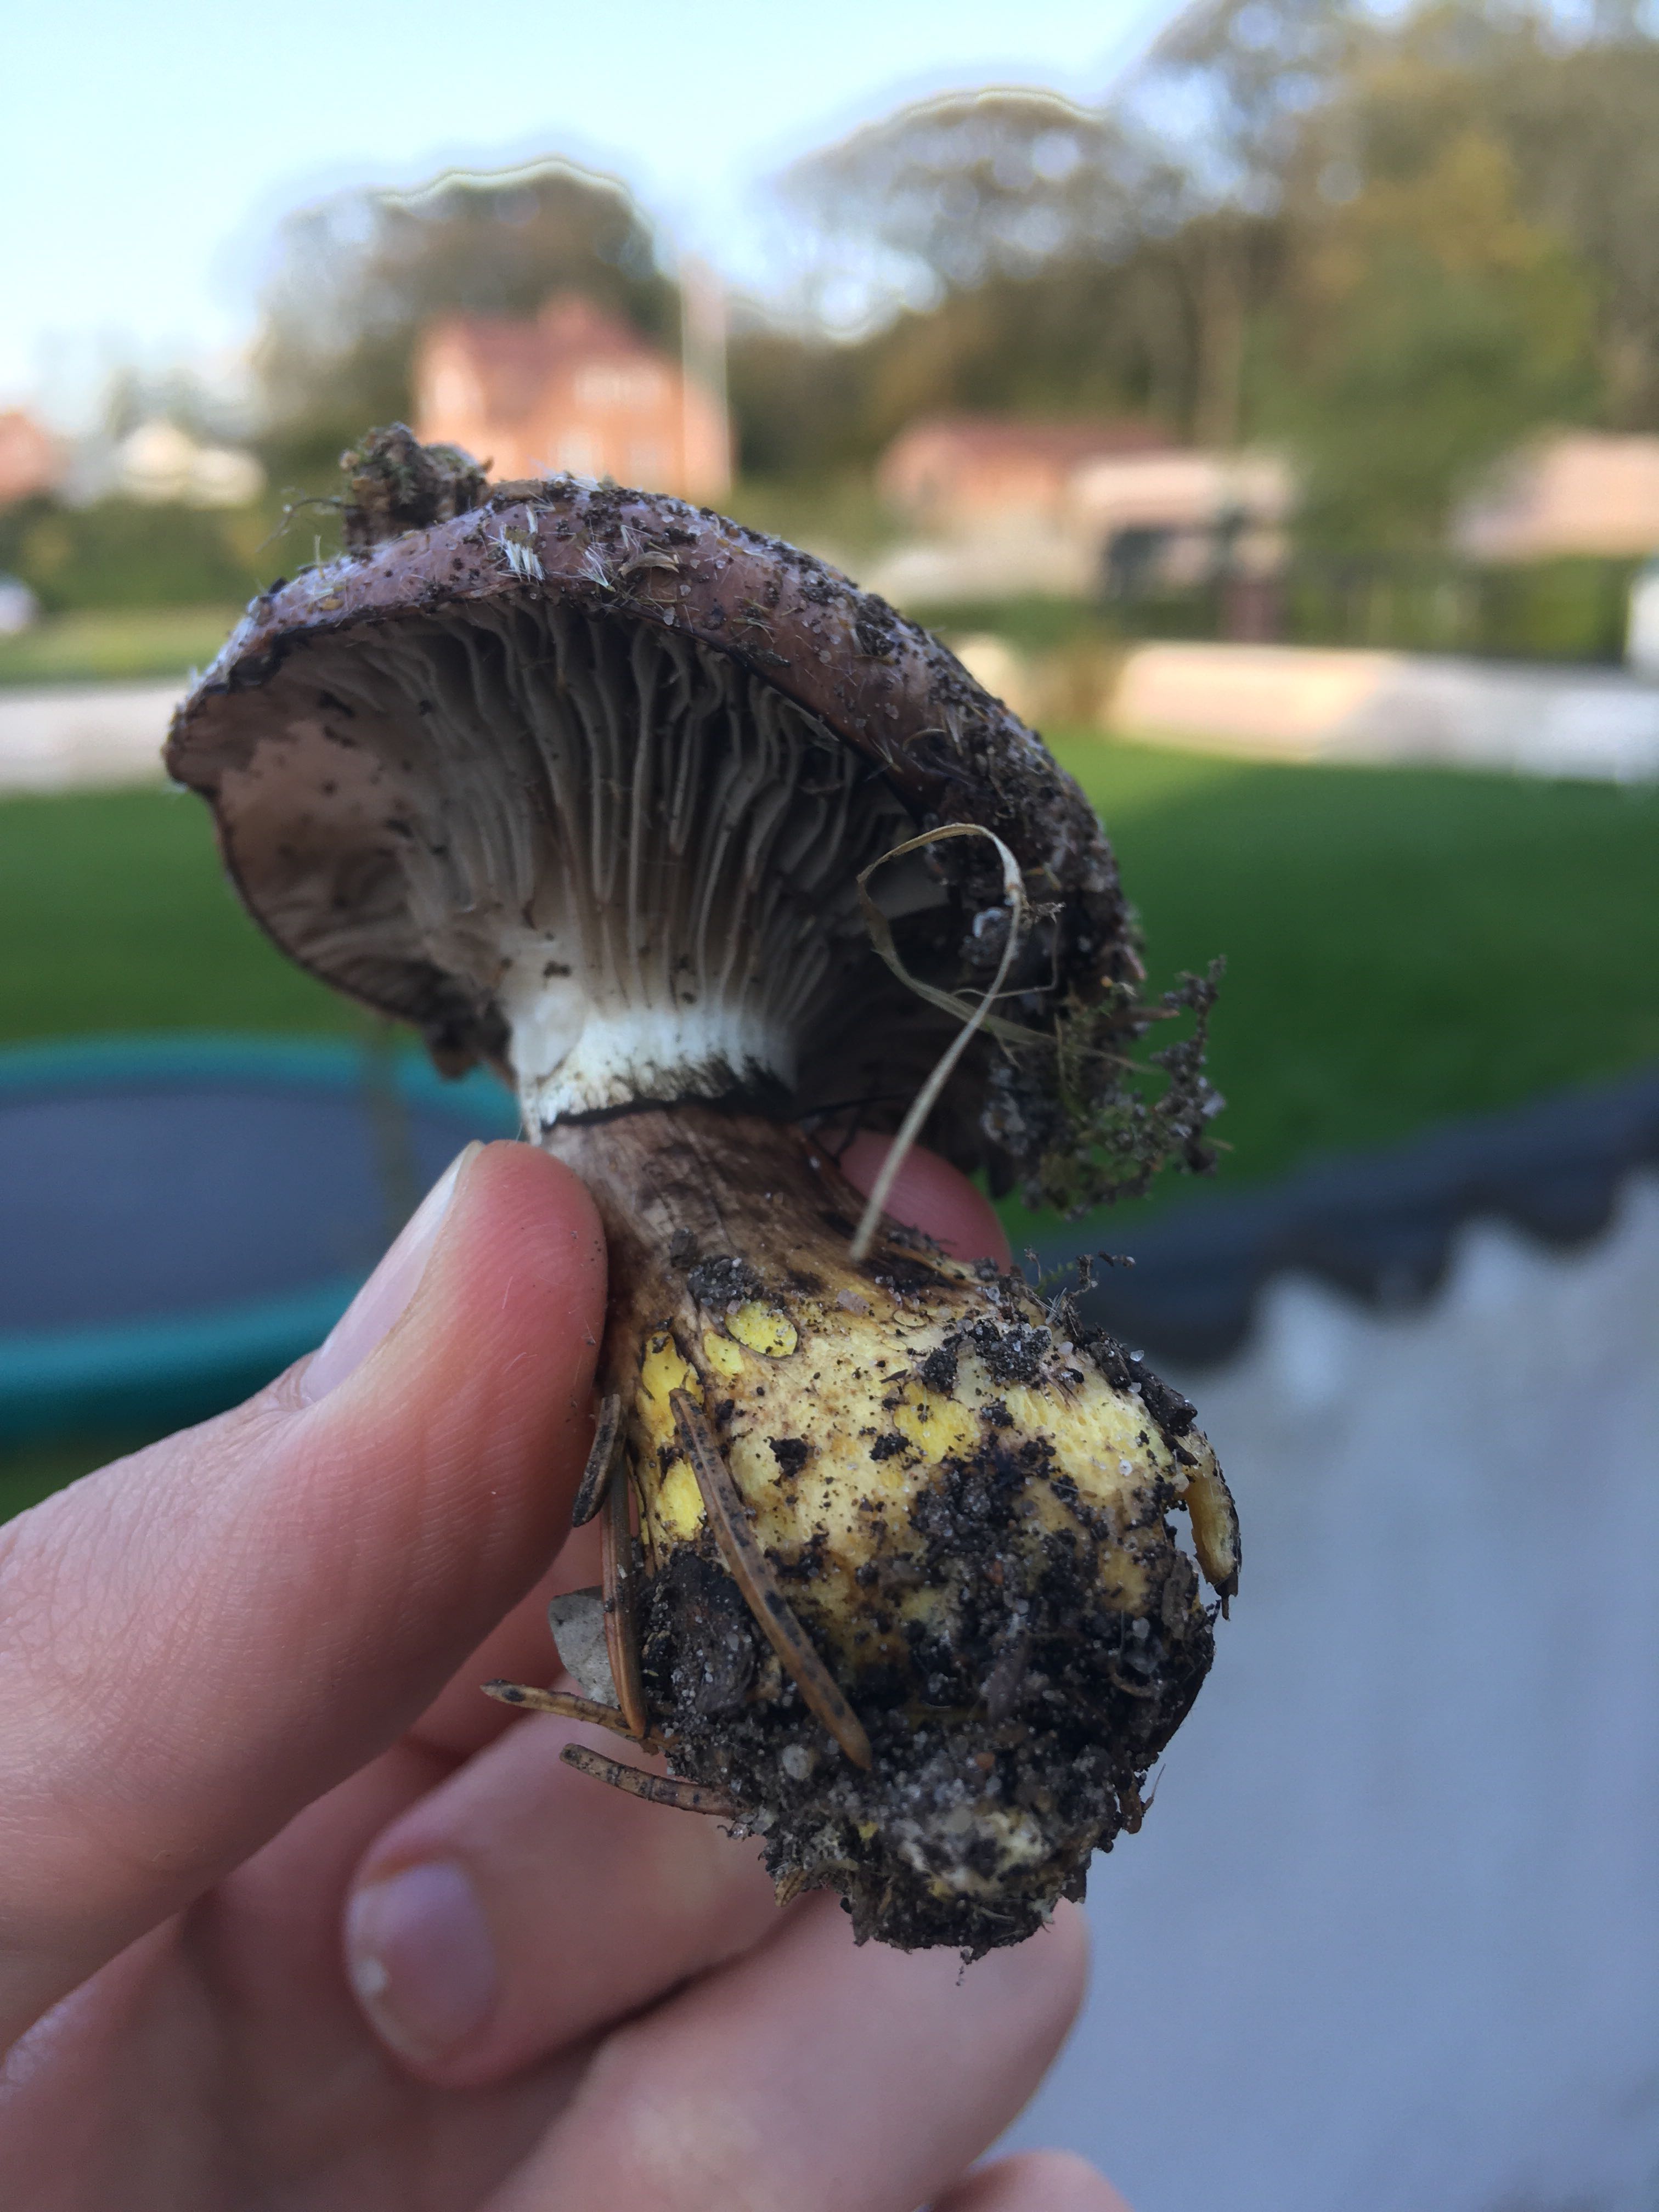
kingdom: Fungi
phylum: Basidiomycota
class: Agaricomycetes
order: Boletales
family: Gomphidiaceae
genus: Gomphidius
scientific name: Gomphidius glutinosus
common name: grå slimslør
